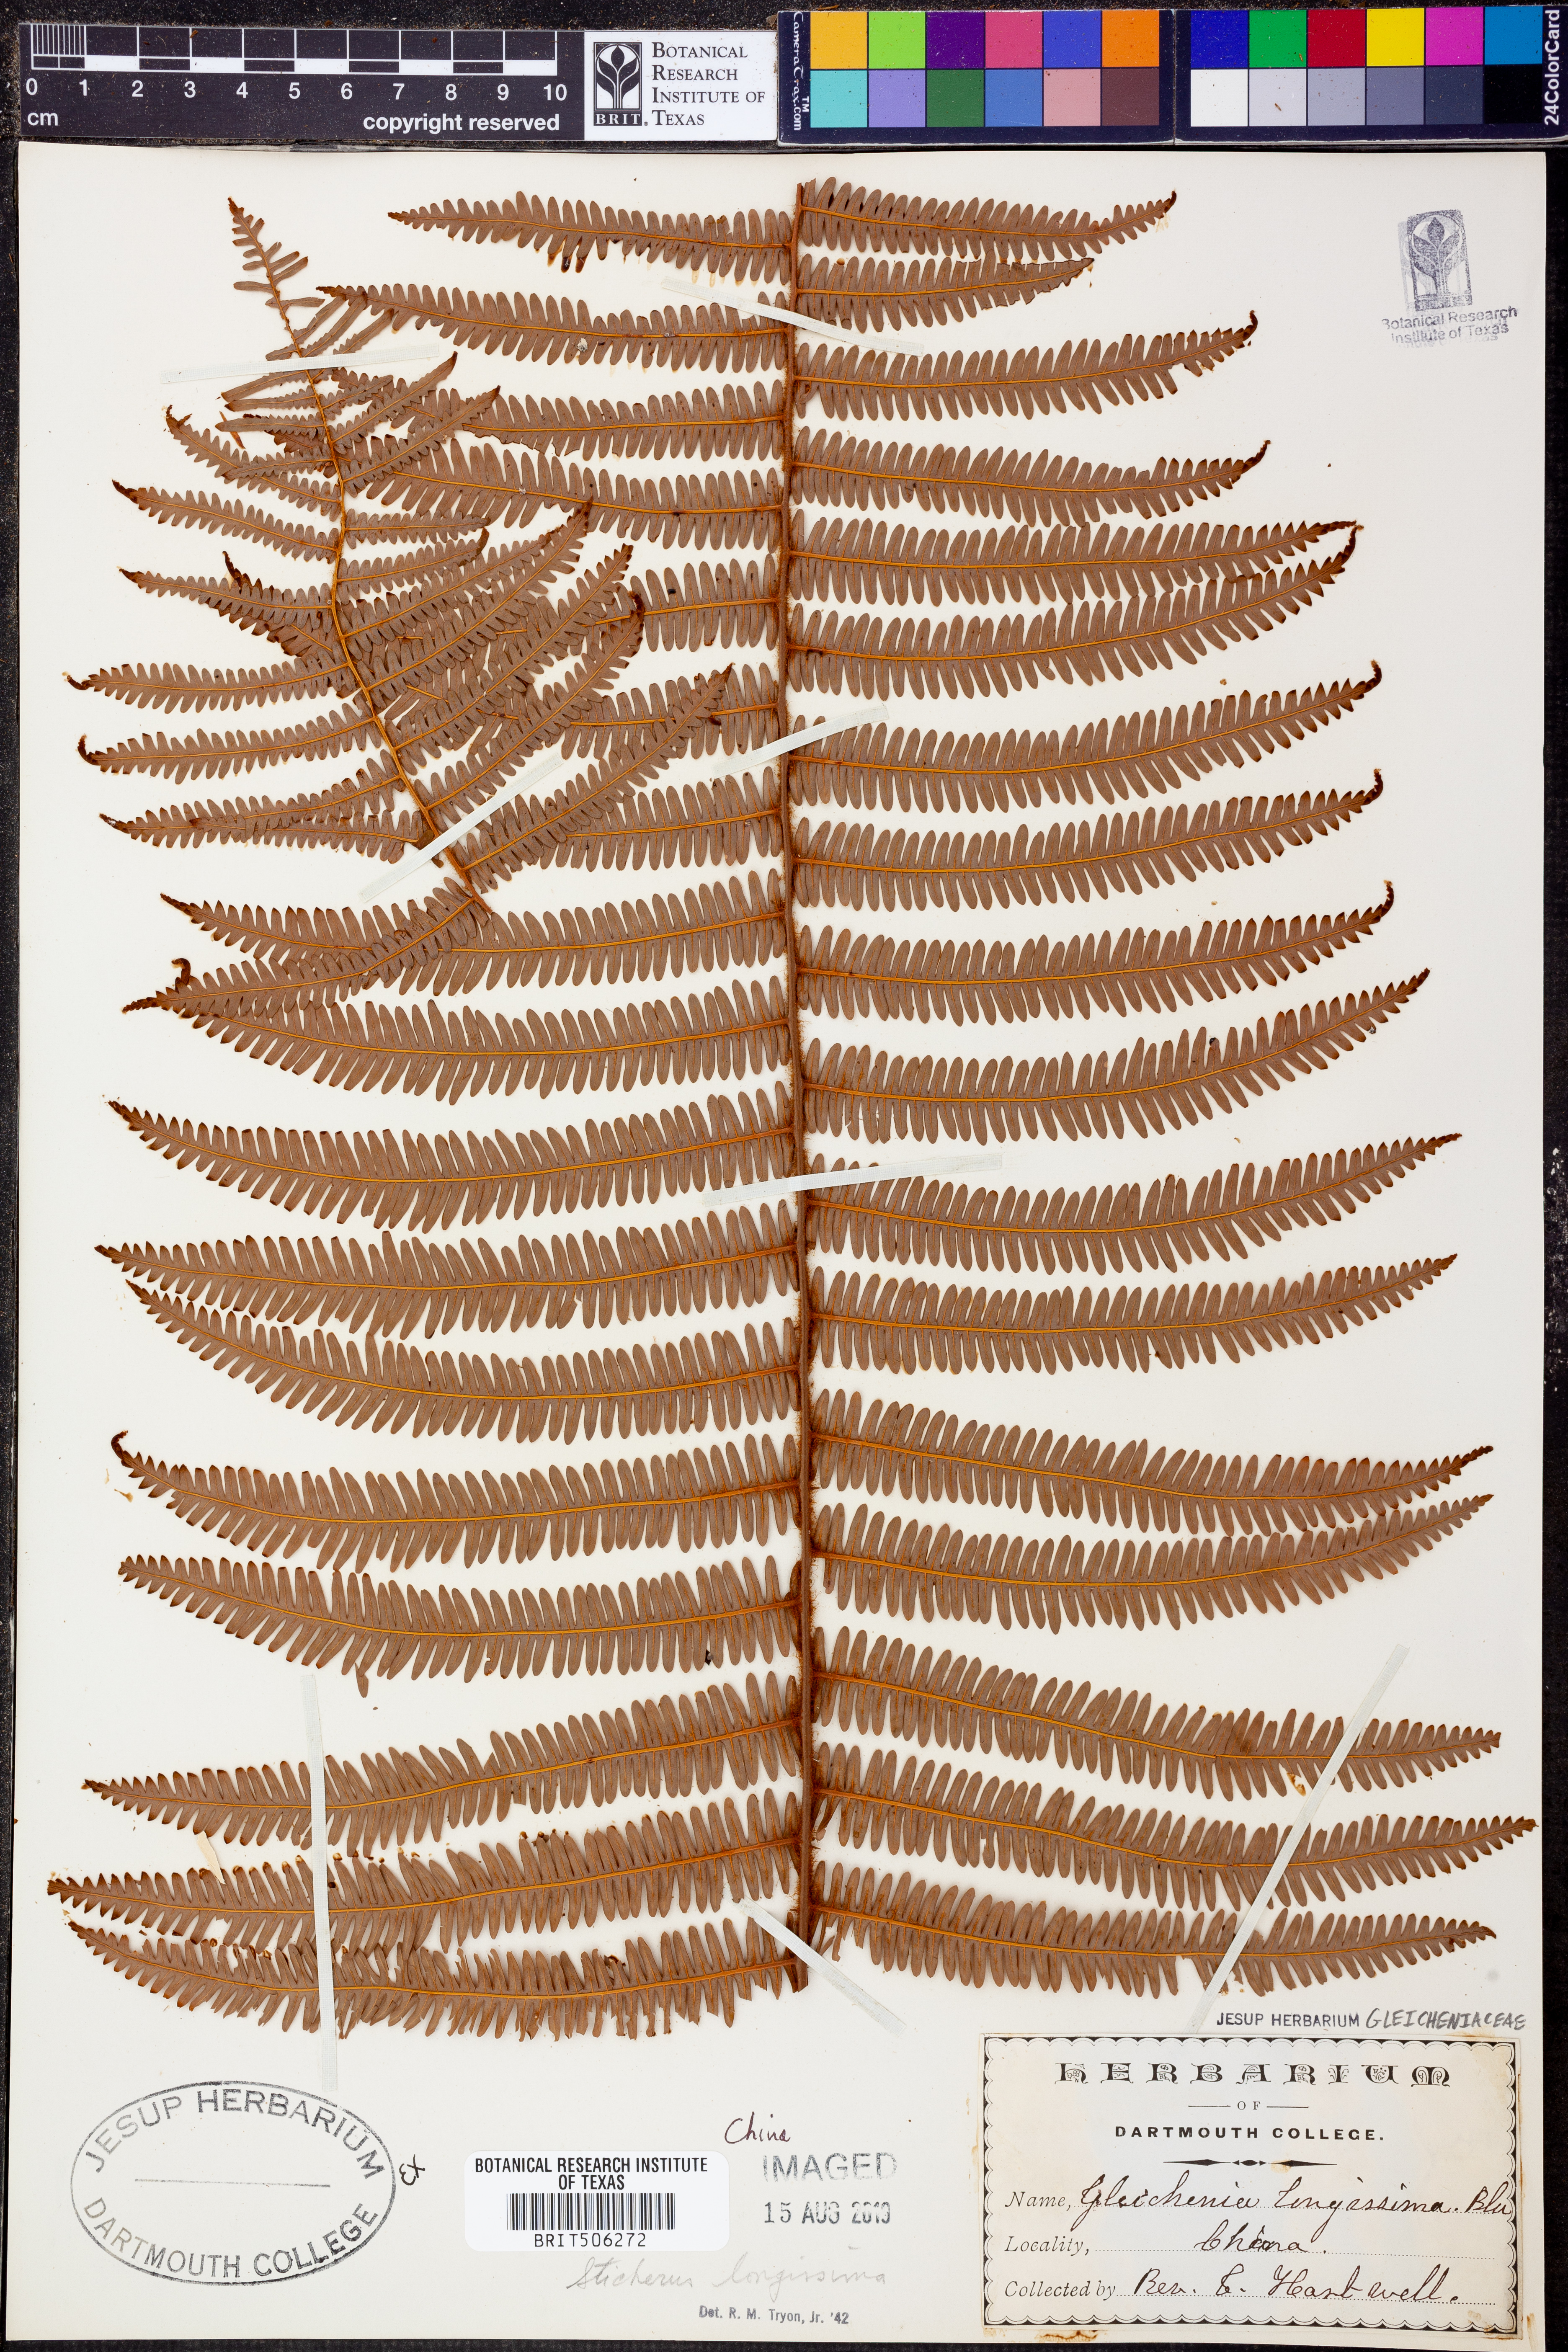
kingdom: Plantae
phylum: Tracheophyta
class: Polypodiopsida
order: Gleicheniales
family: Gleicheniaceae
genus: Sticherus
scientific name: Sticherus
